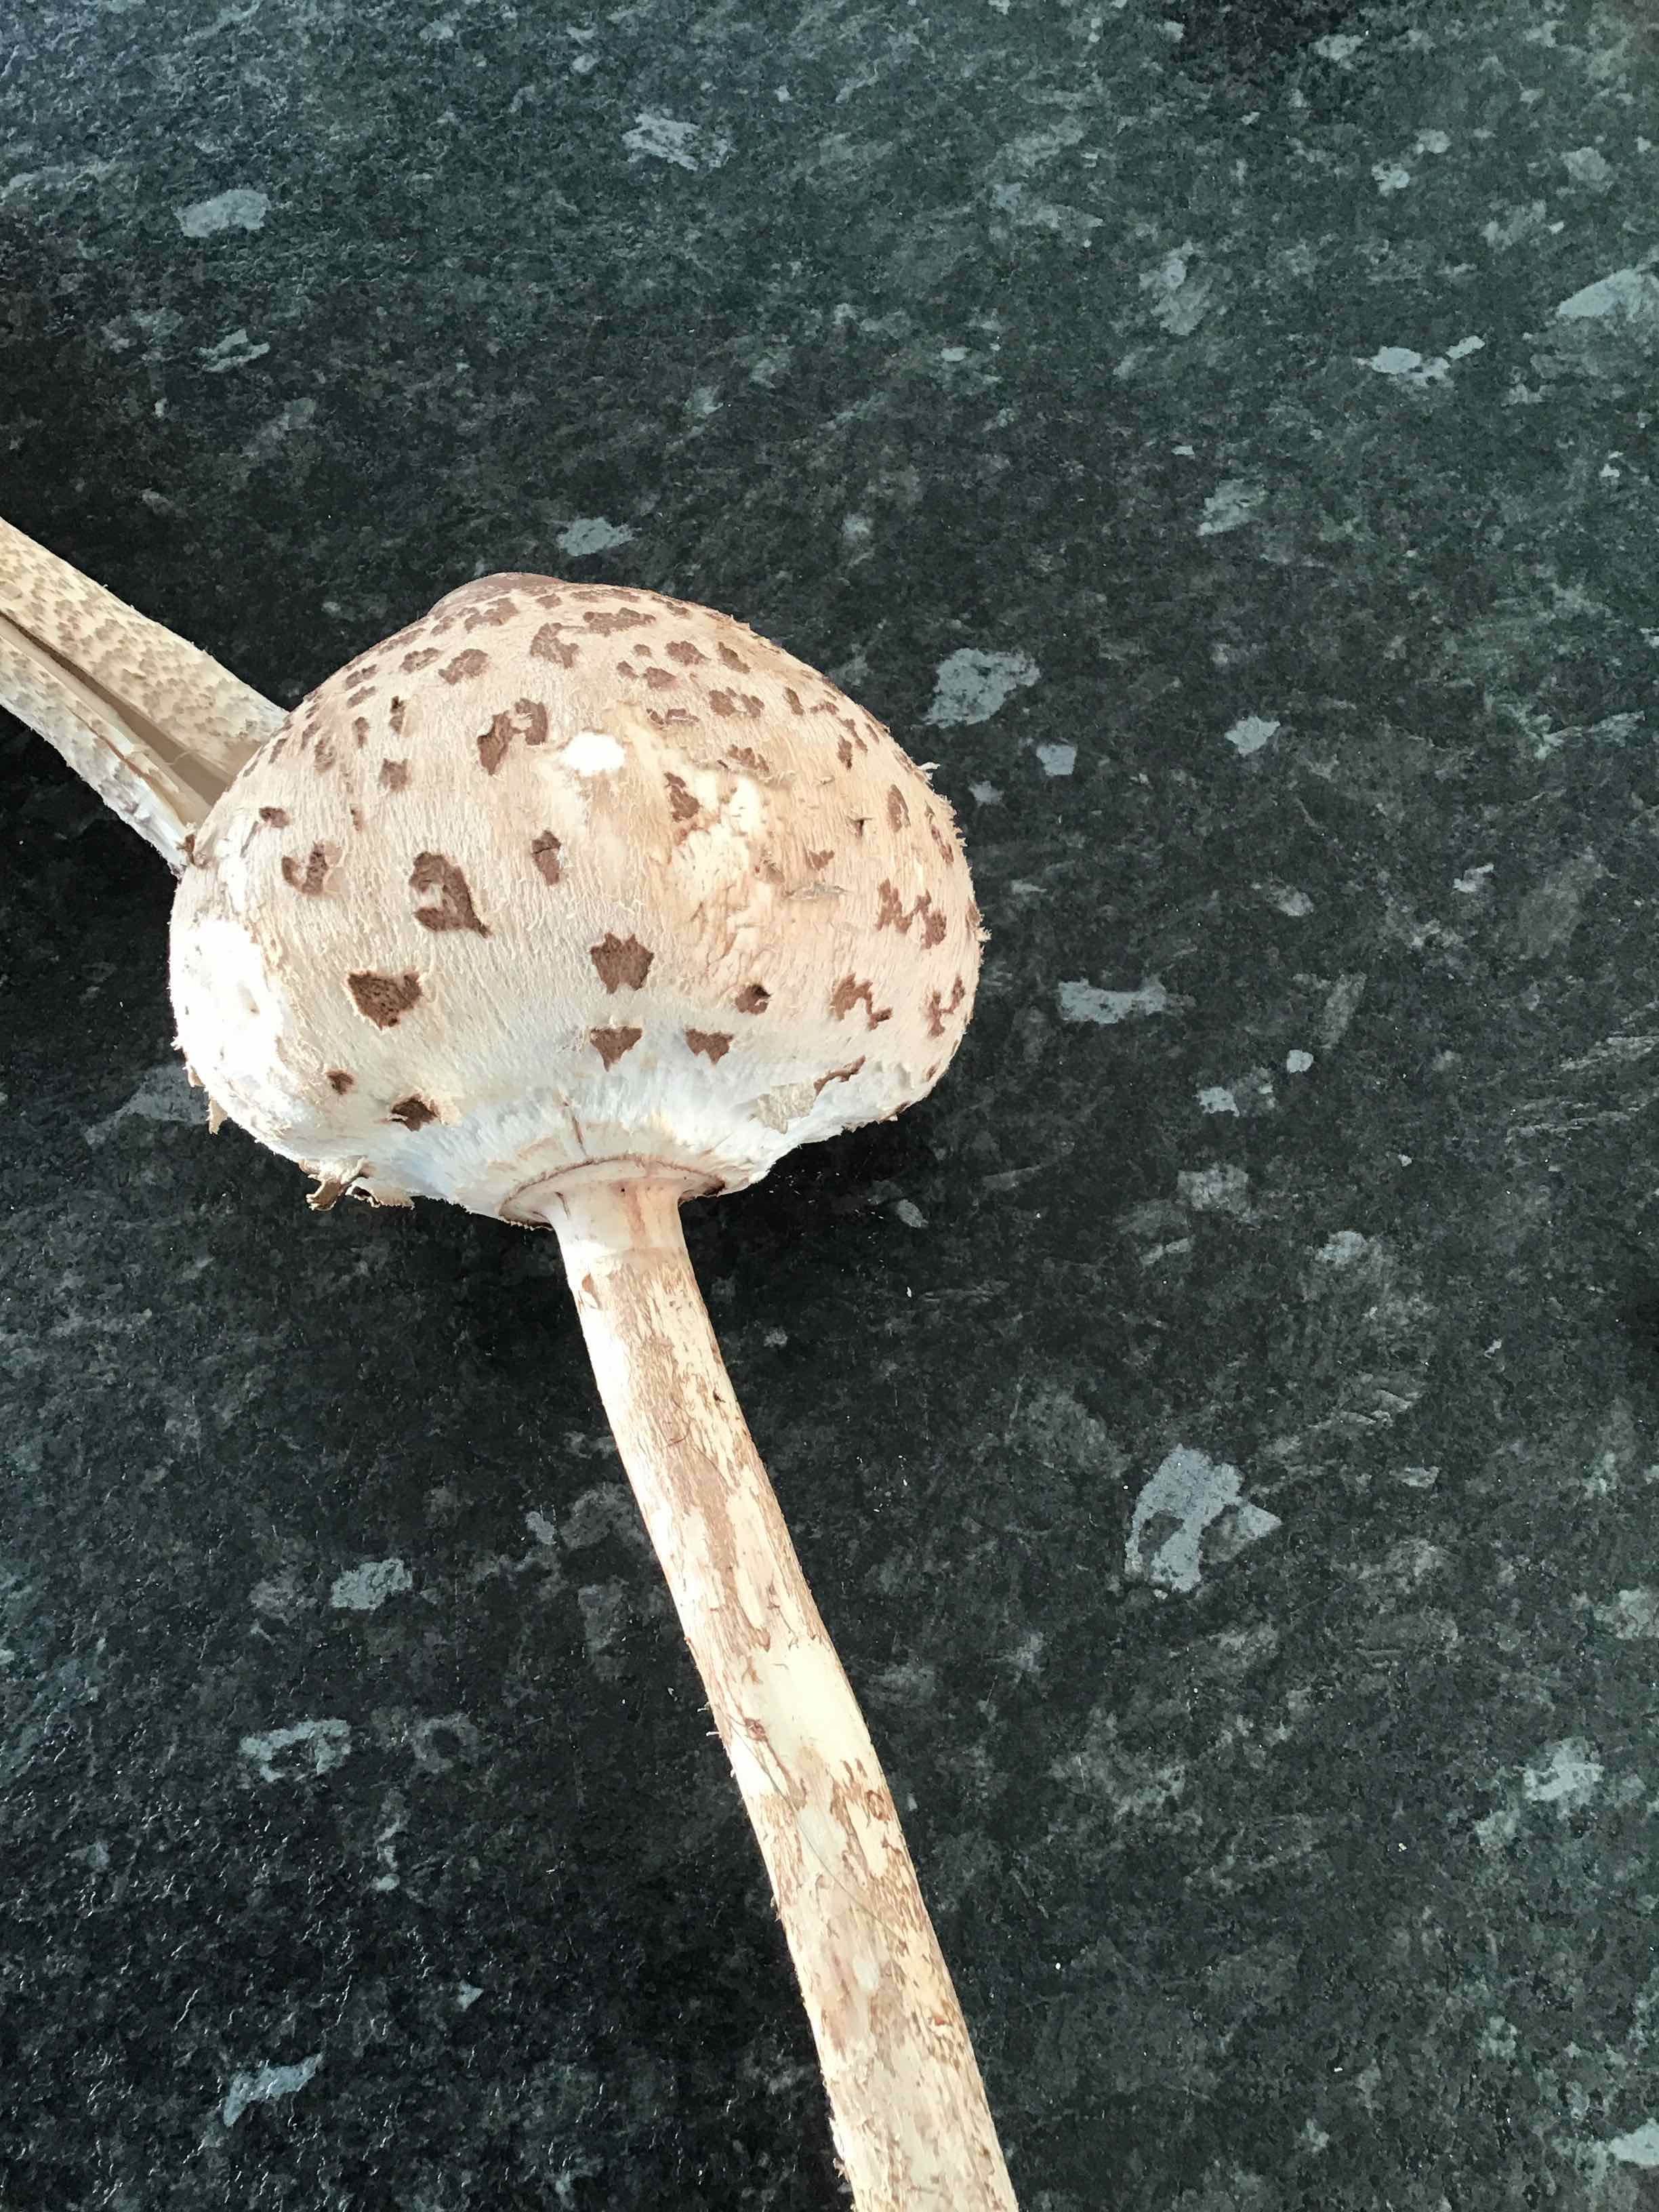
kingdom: Fungi
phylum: Basidiomycota
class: Agaricomycetes
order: Agaricales
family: Agaricaceae
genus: Macrolepiota
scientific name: Macrolepiota procera
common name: stor kæmpeparasolhat
